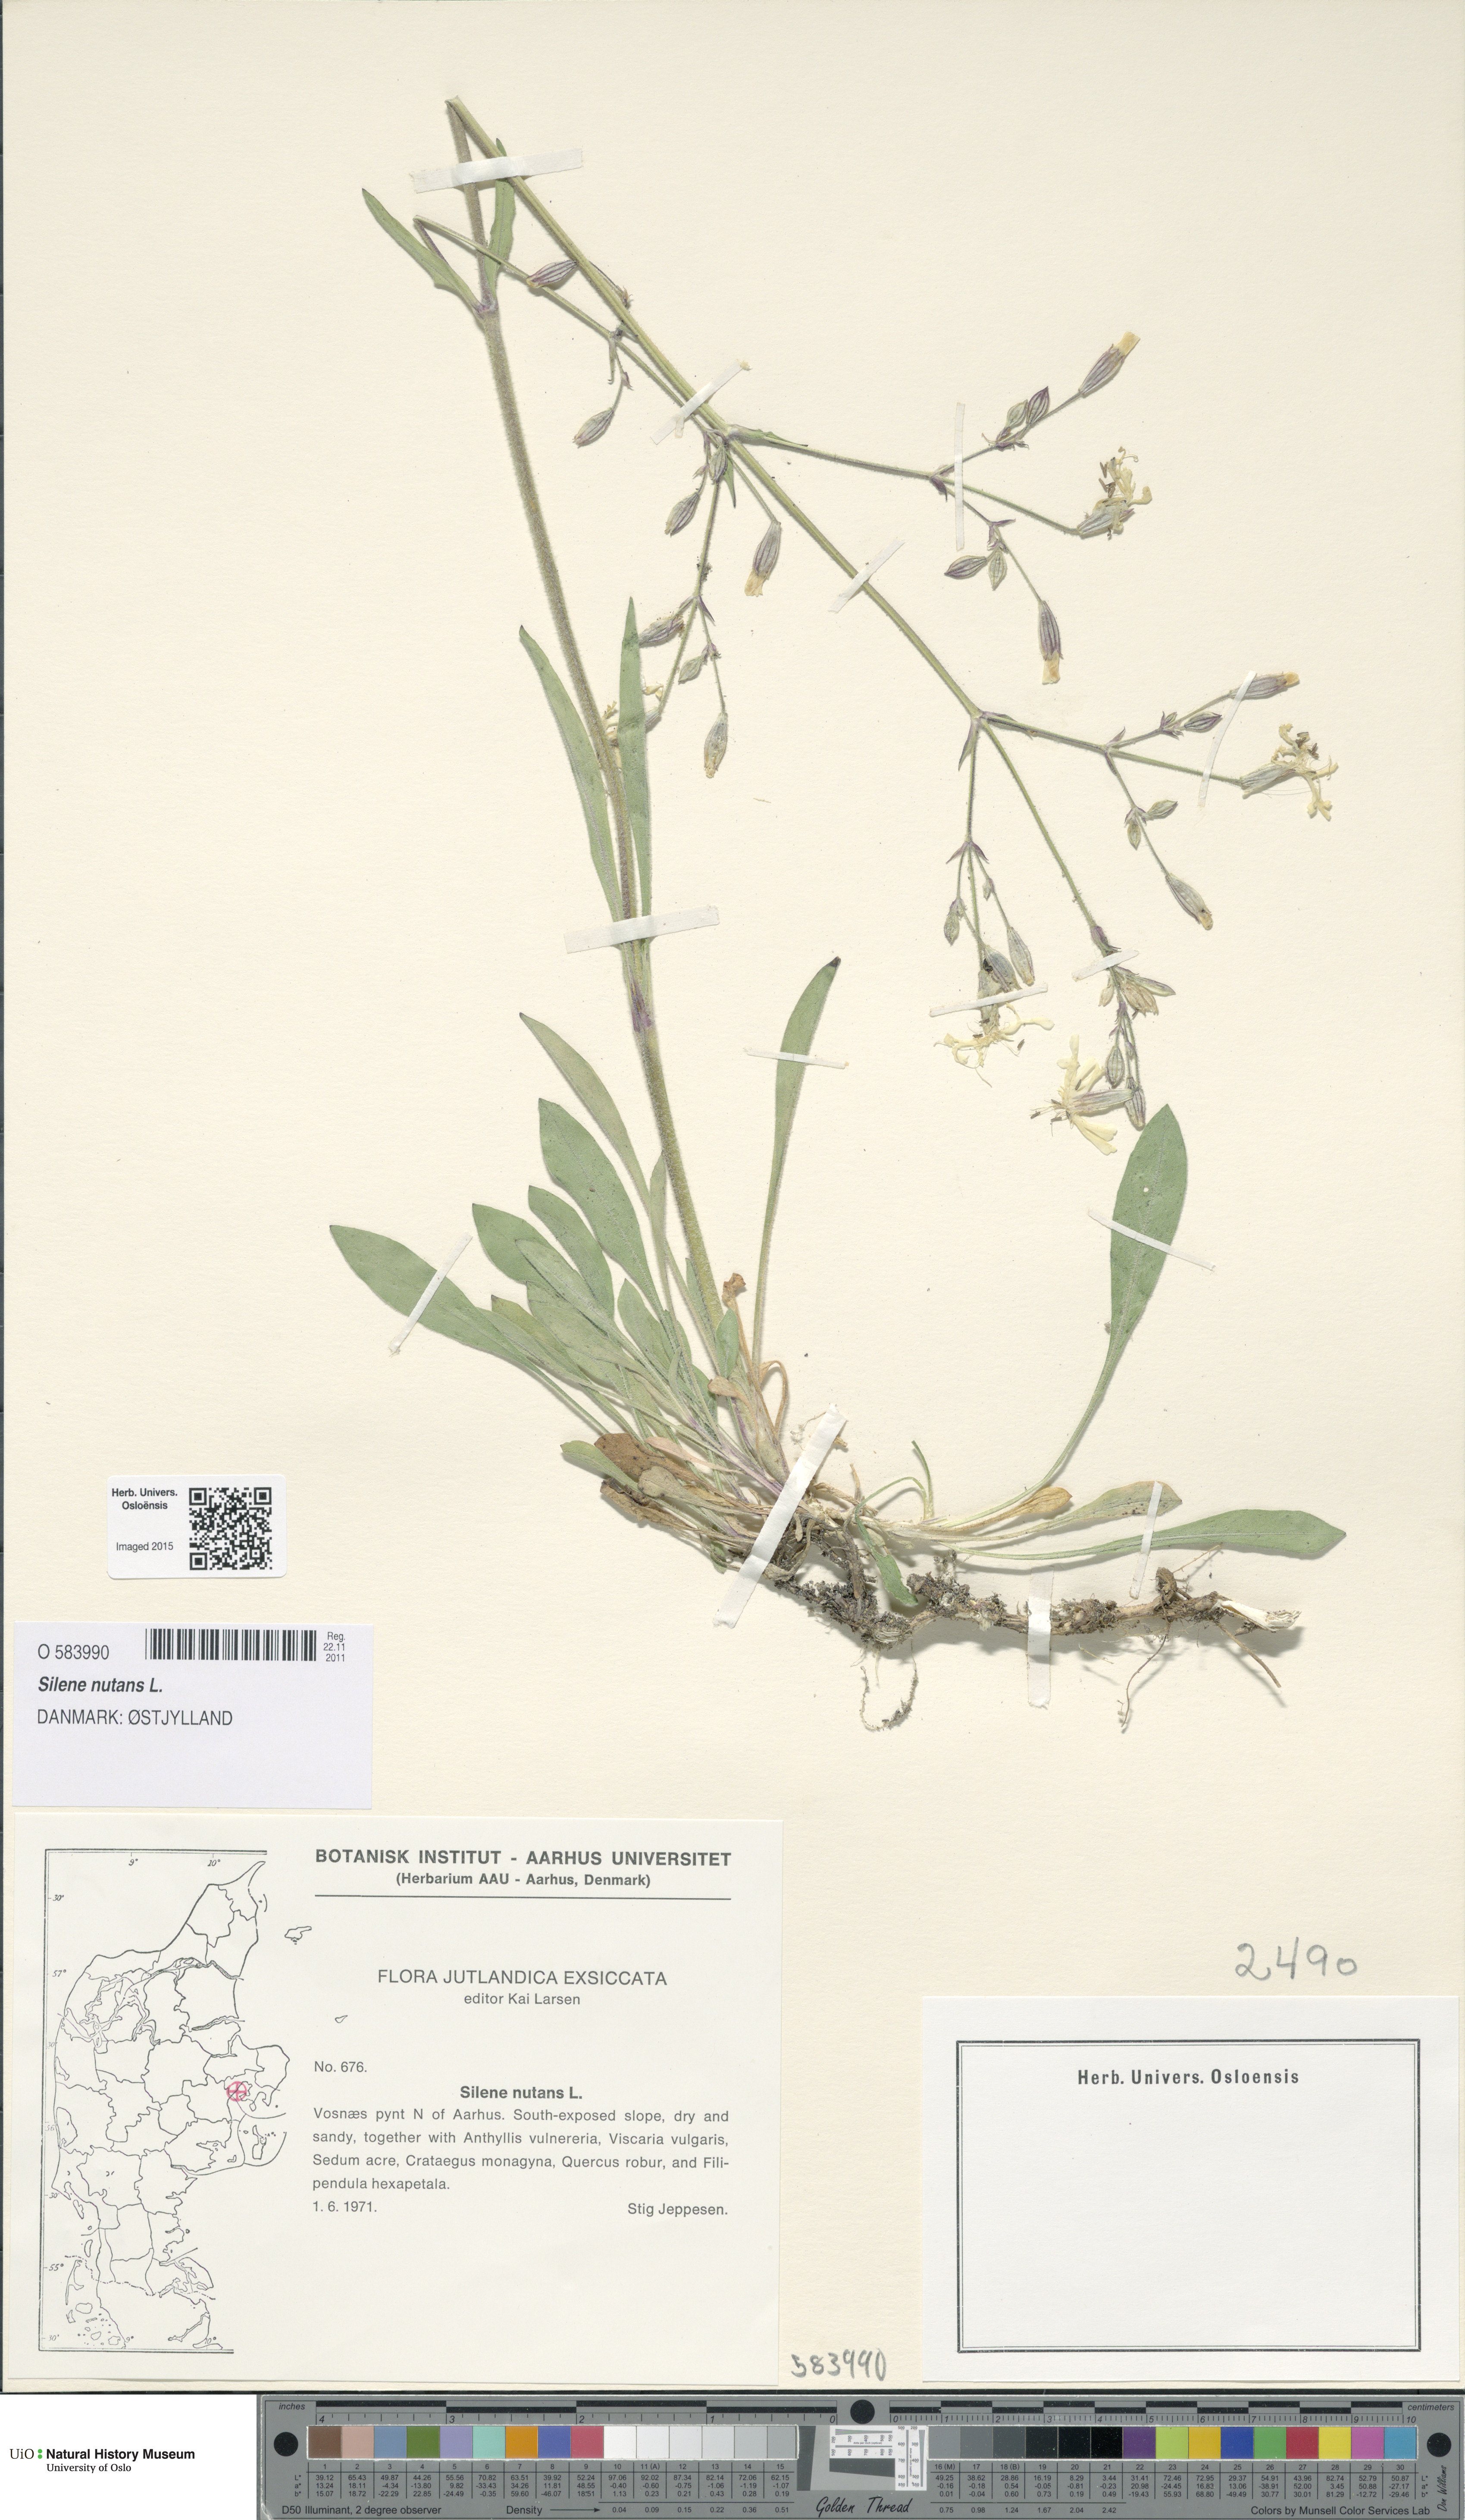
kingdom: Plantae
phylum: Tracheophyta
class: Magnoliopsida
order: Caryophyllales
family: Caryophyllaceae
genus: Silene
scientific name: Silene nutans
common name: Nottingham catchfly
